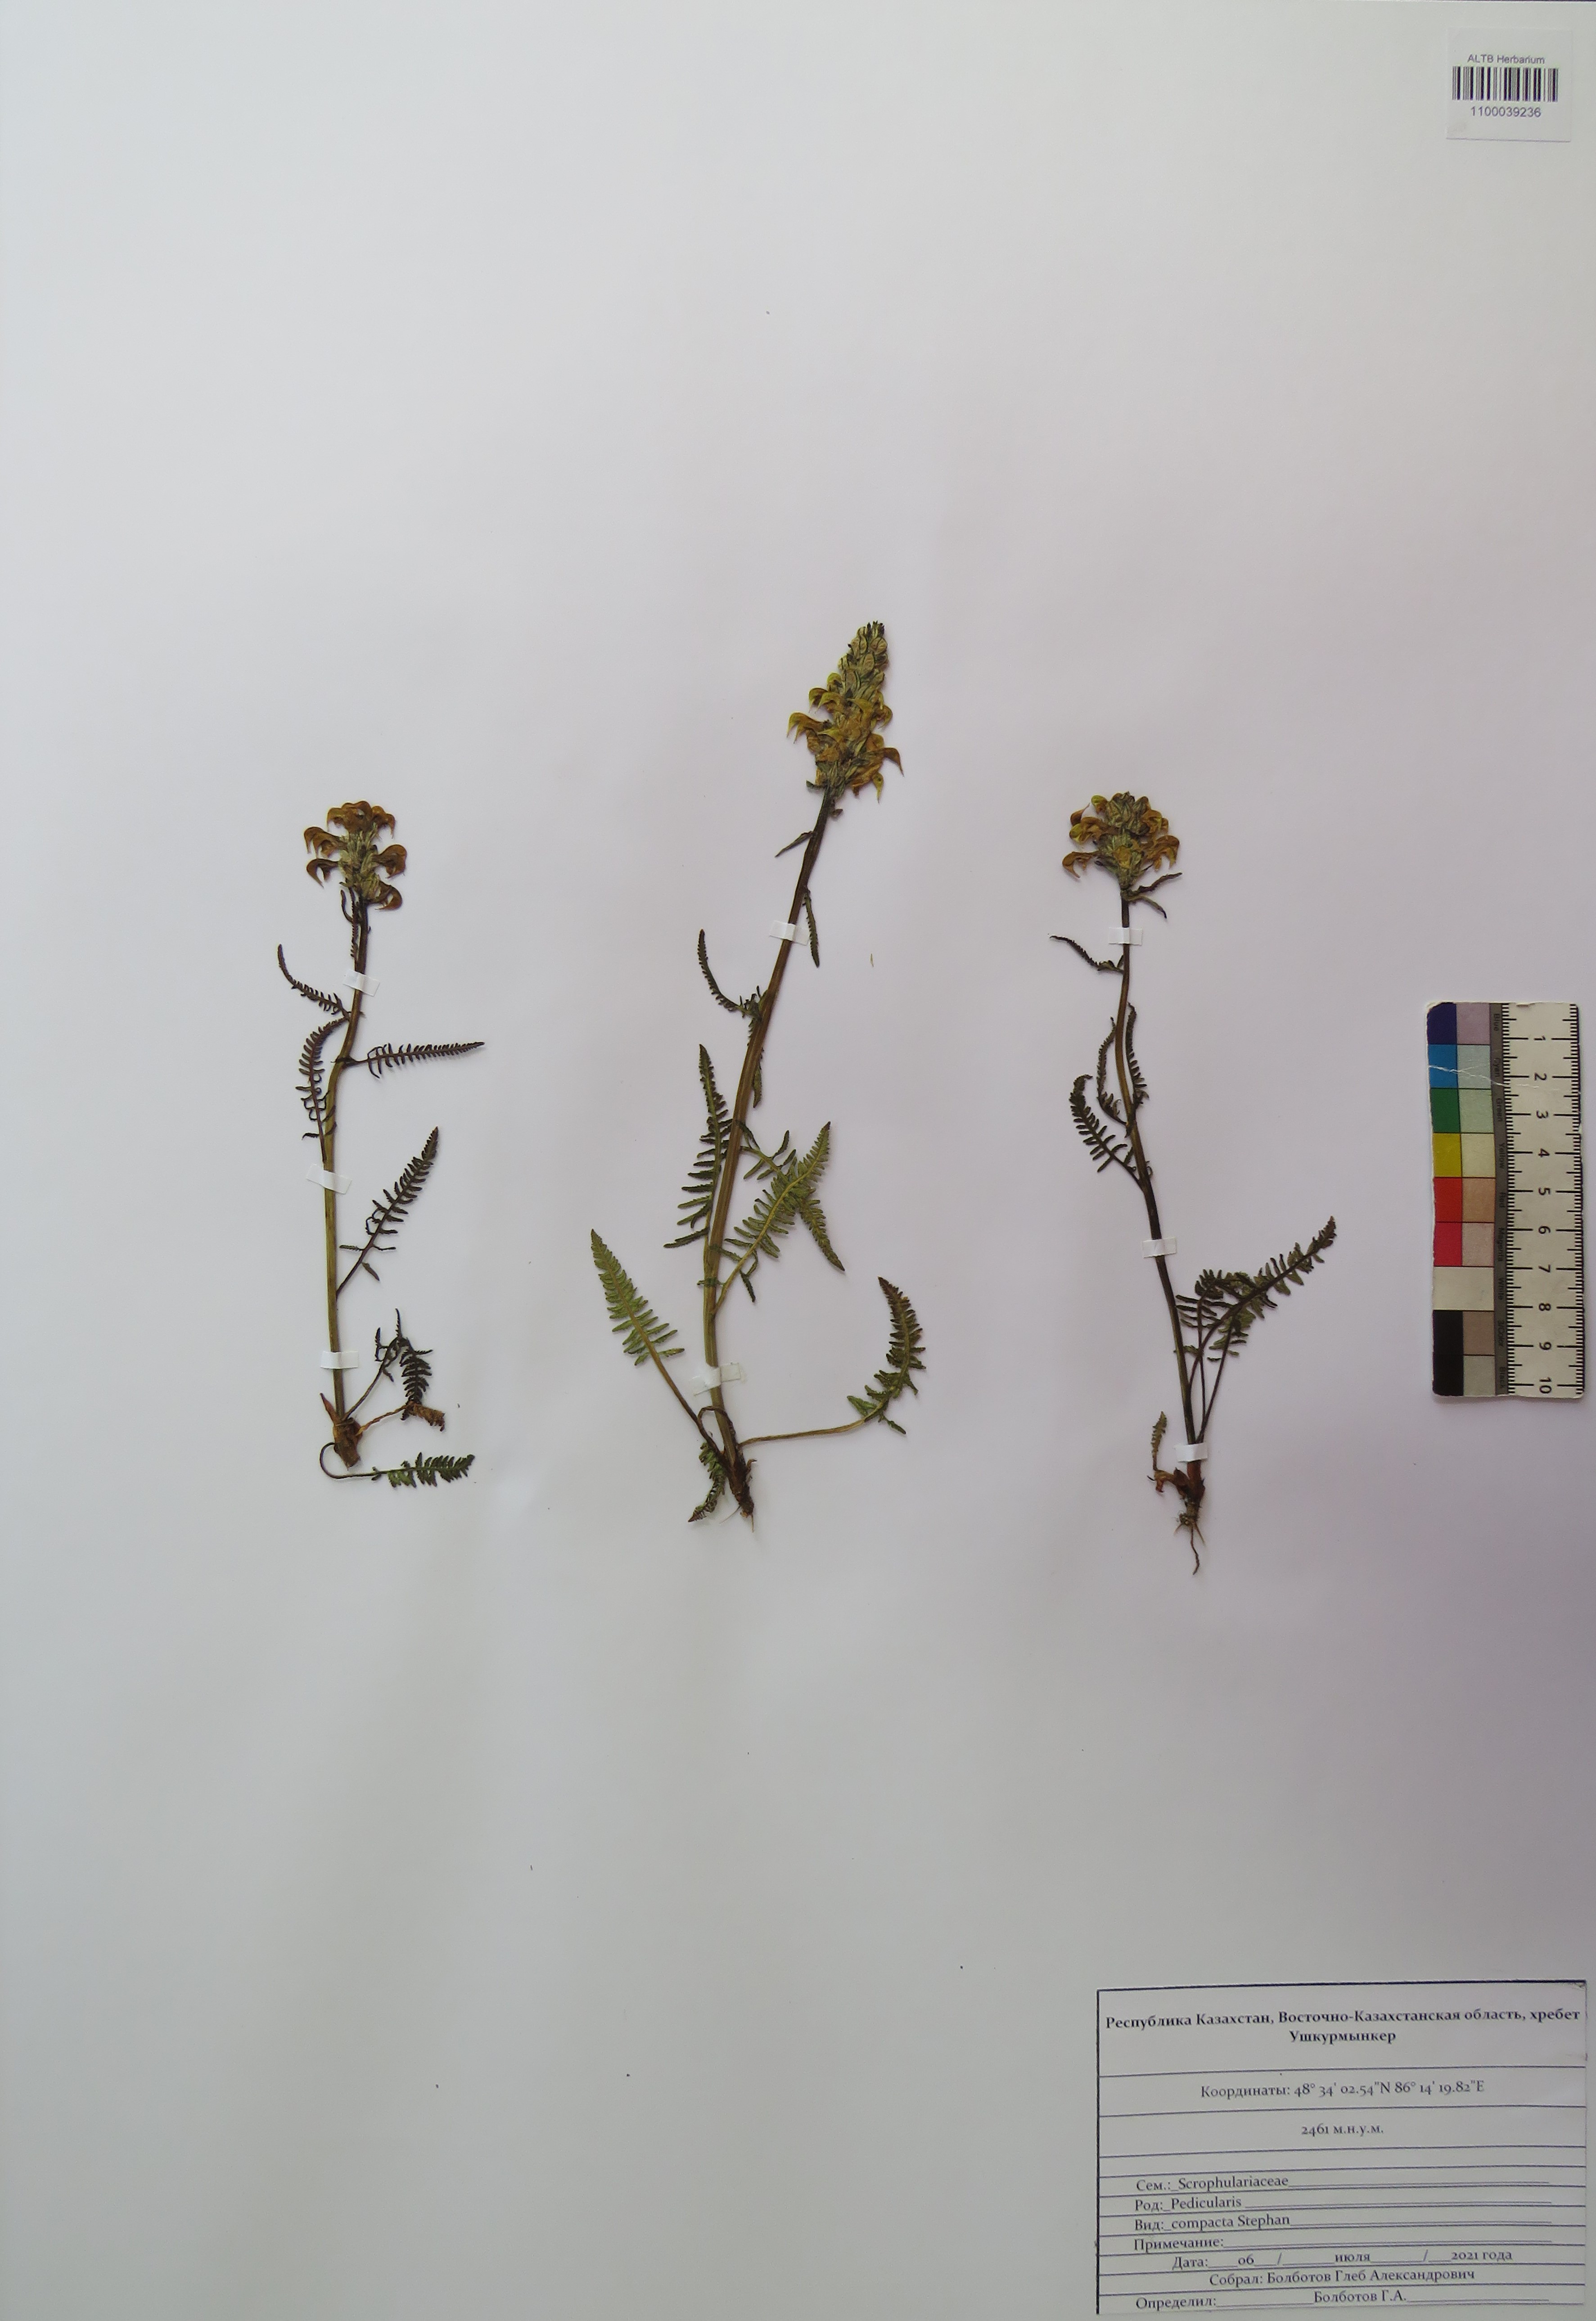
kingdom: Plantae
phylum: Tracheophyta
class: Magnoliopsida
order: Lamiales
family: Orobanchaceae
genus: Pedicularis
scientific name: Pedicularis compacta
